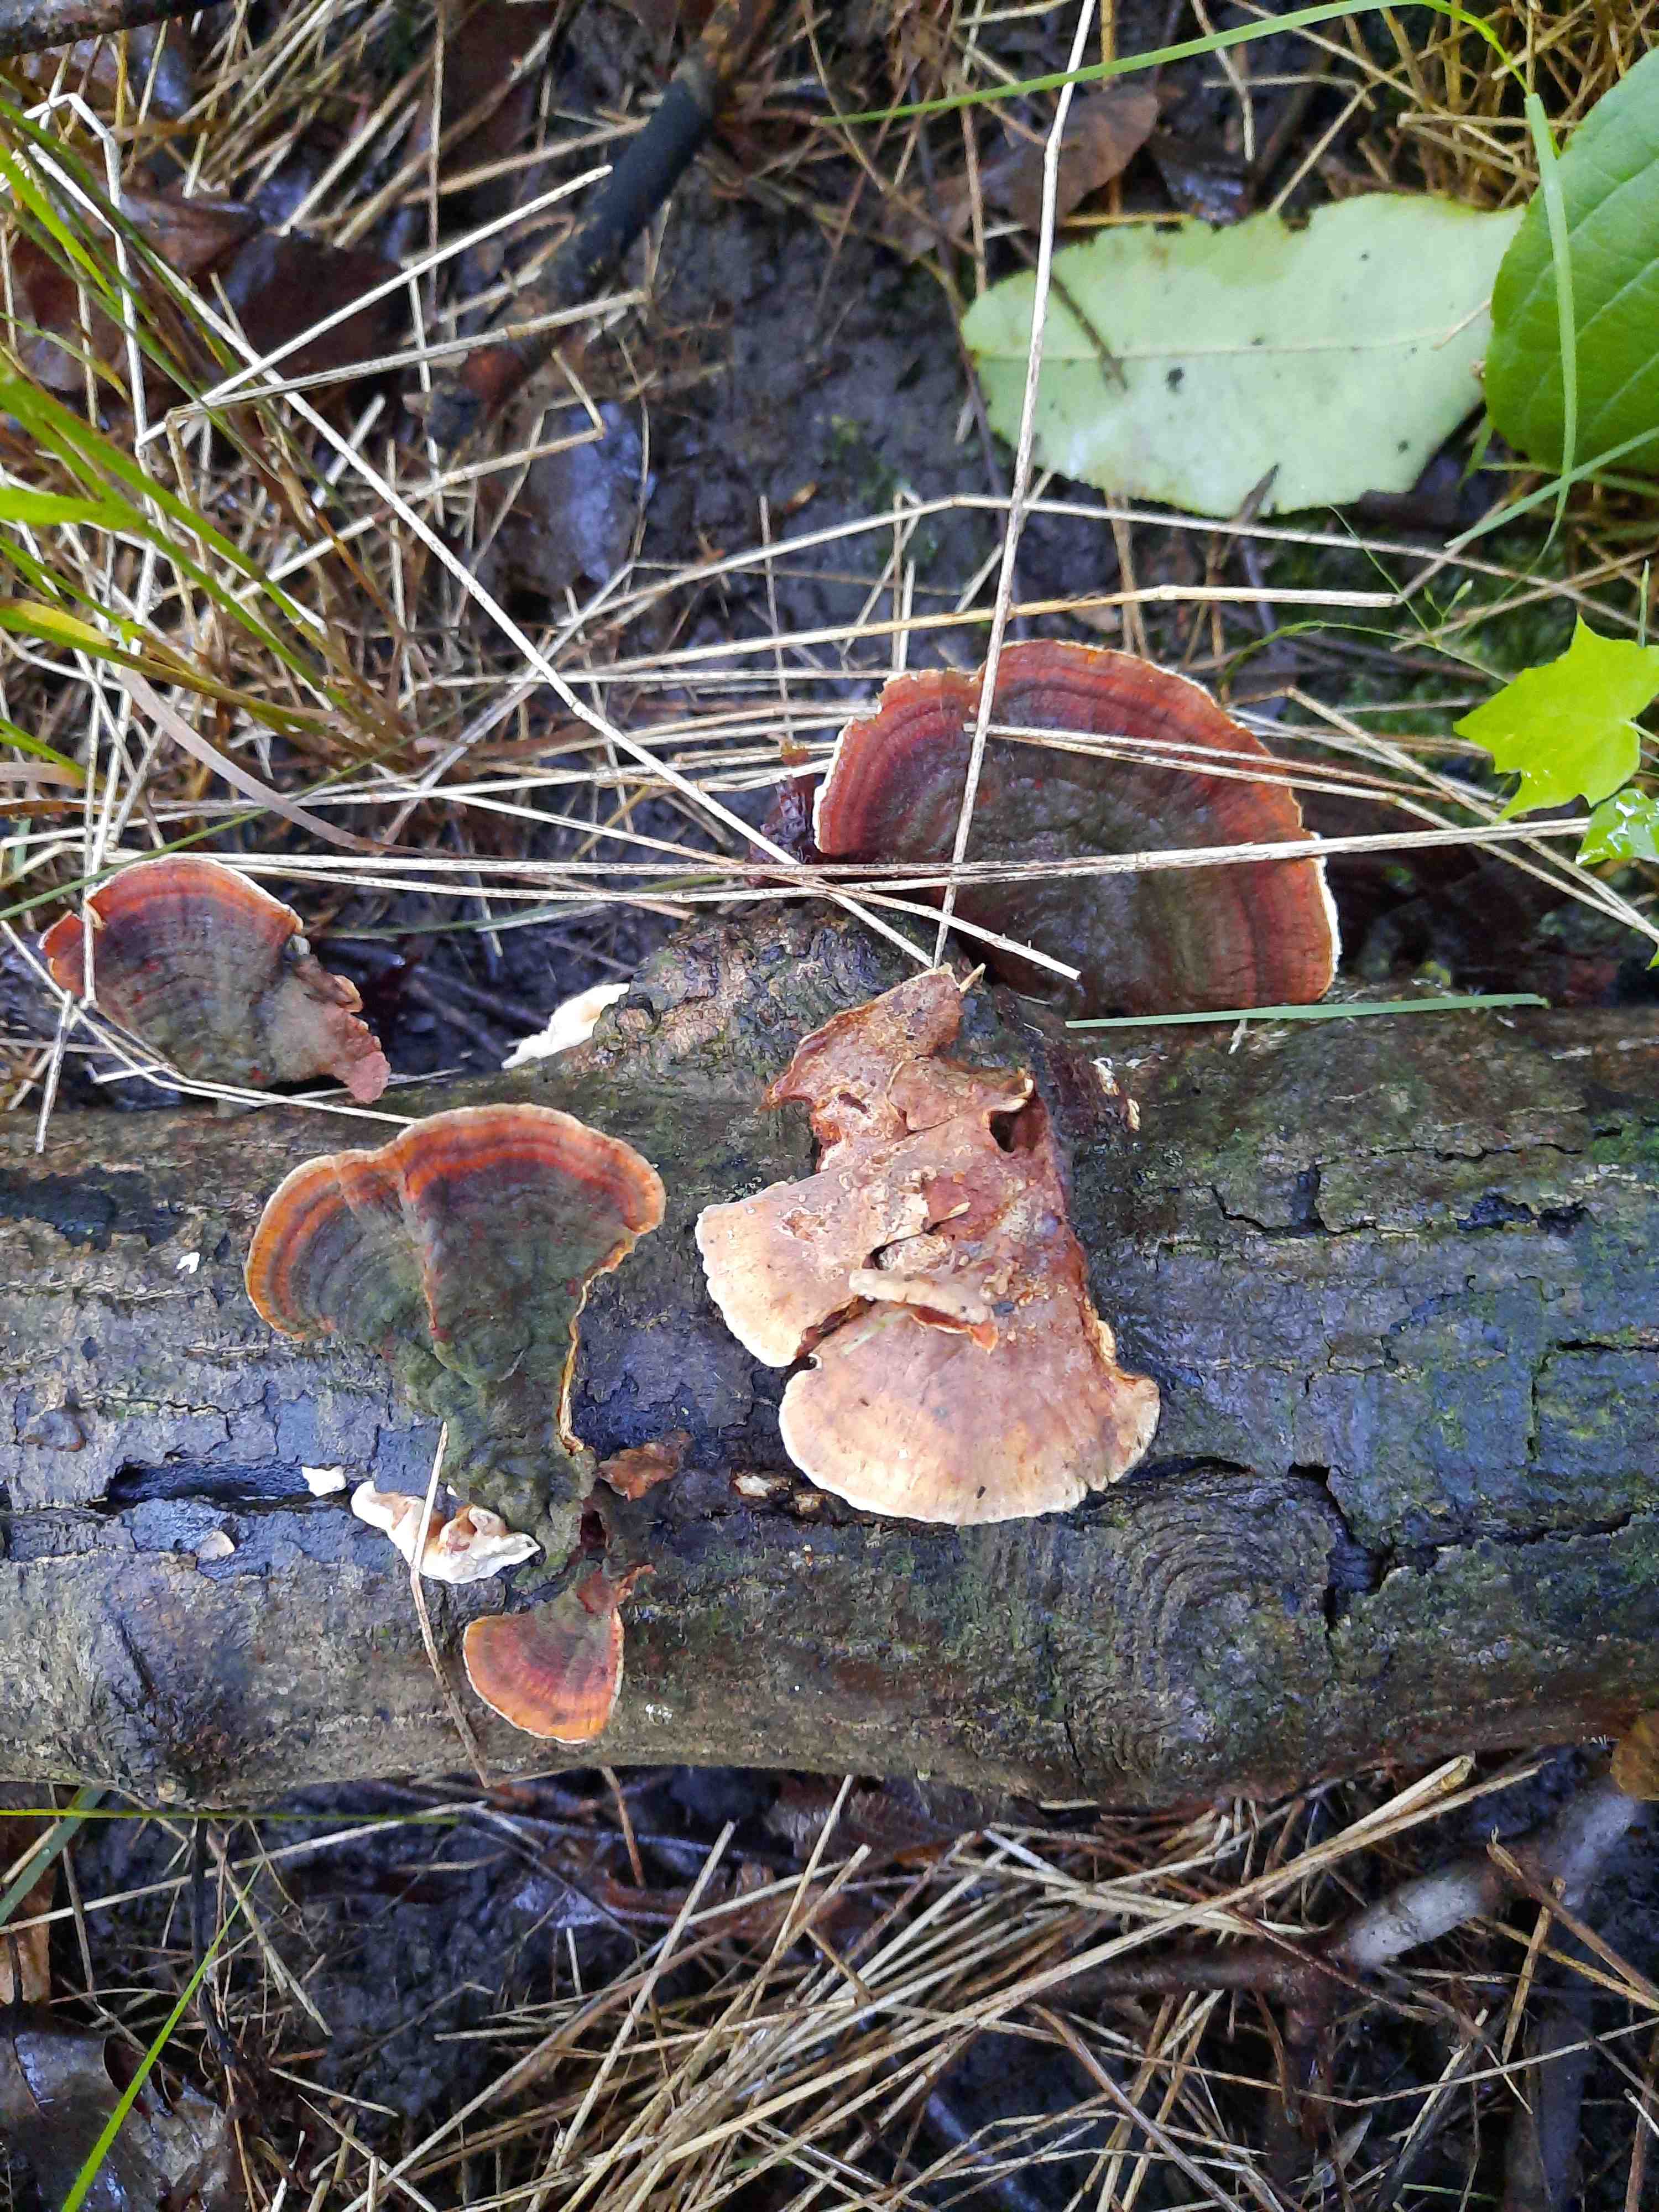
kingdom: Fungi
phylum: Basidiomycota
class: Agaricomycetes
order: Russulales
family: Stereaceae
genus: Stereum
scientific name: Stereum subtomentosum
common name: smuk lædersvamp
